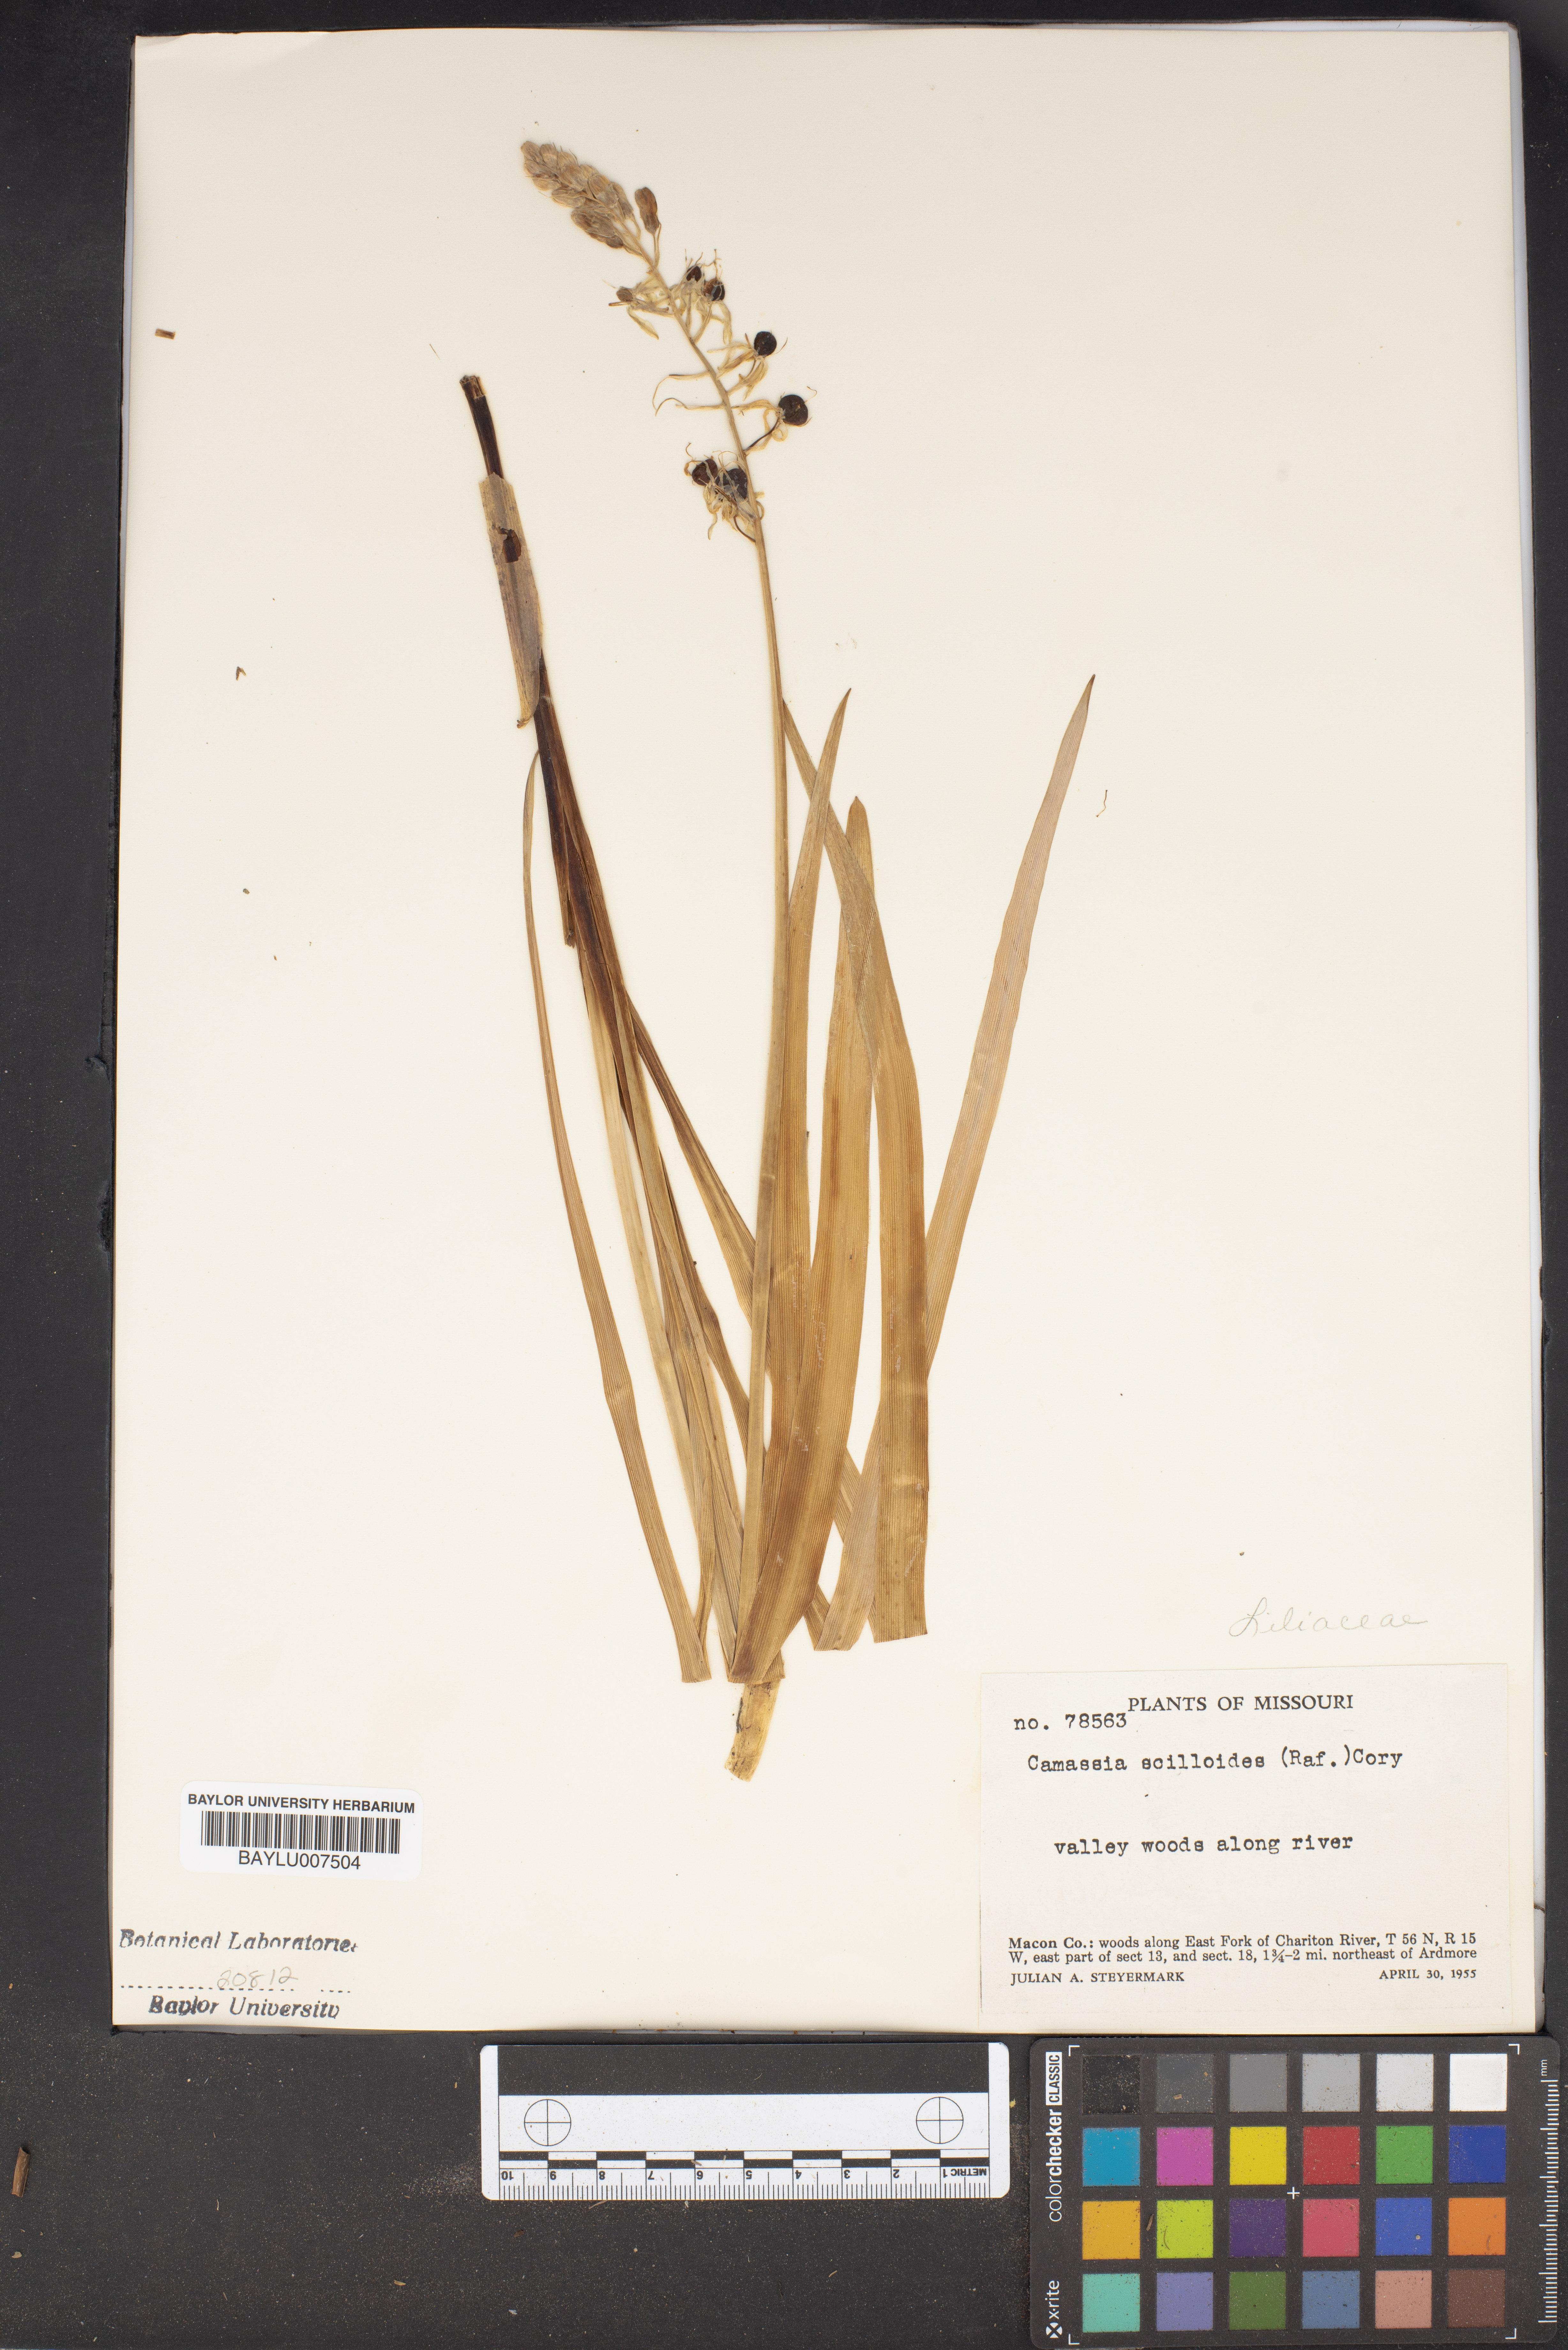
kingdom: Plantae
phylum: Tracheophyta
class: Liliopsida
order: Asparagales
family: Asparagaceae
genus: Camassia
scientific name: Camassia scilloides
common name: Wild hyacinth
